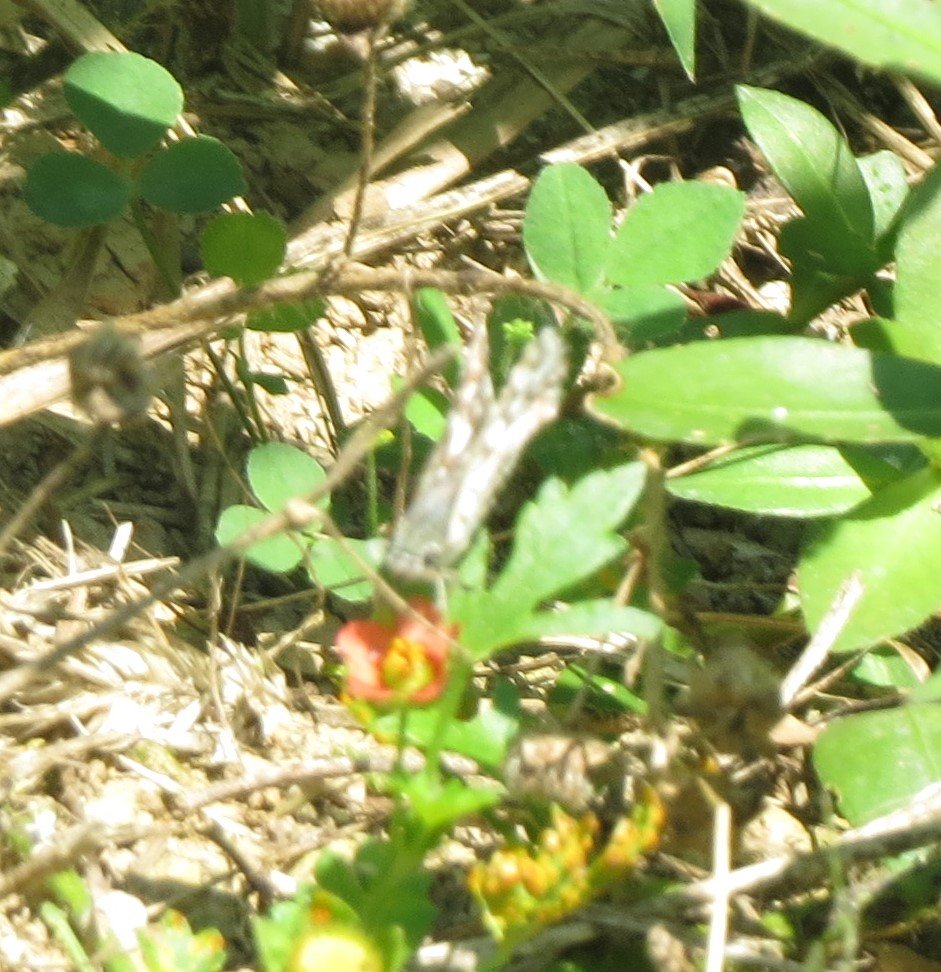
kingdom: Animalia
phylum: Arthropoda
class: Insecta
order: Lepidoptera
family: Hesperiidae
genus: Pyrgus
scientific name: Pyrgus oileus
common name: Tropical Checkered-Skipper
